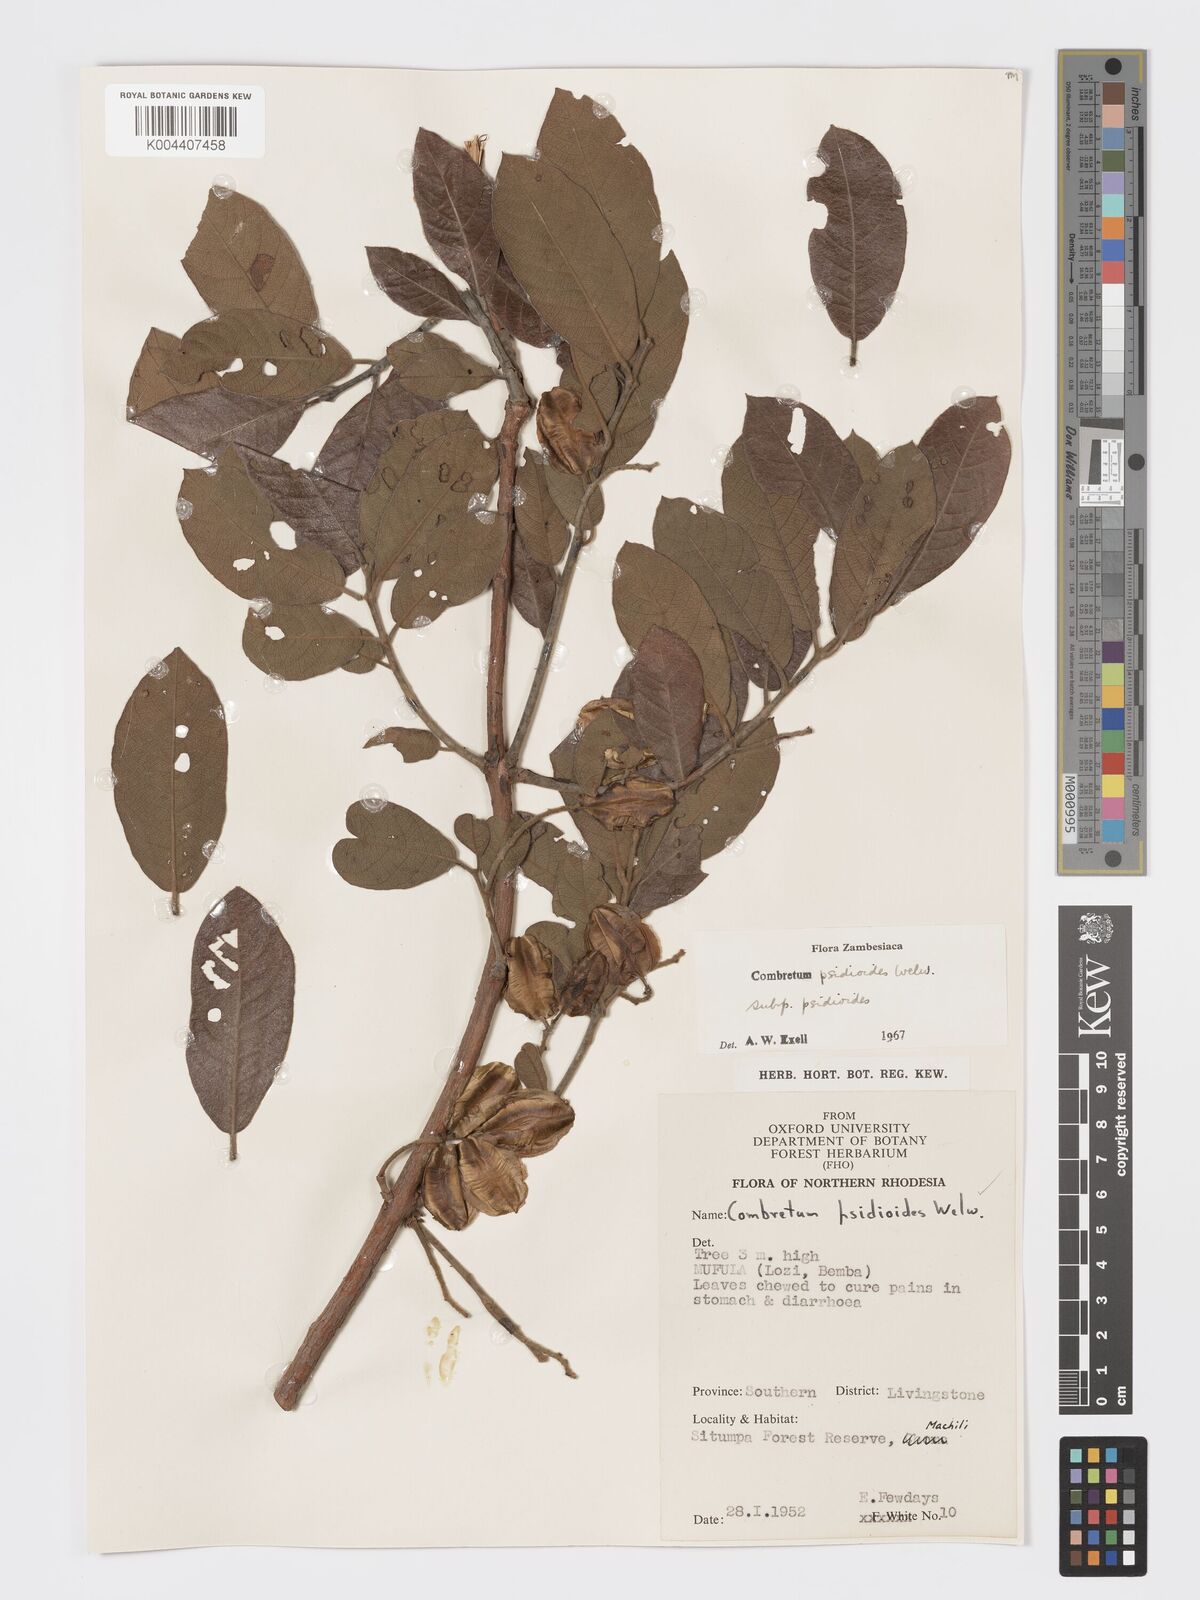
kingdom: Plantae
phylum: Tracheophyta
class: Magnoliopsida
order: Myrtales
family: Combretaceae
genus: Combretum
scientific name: Combretum psidioides
